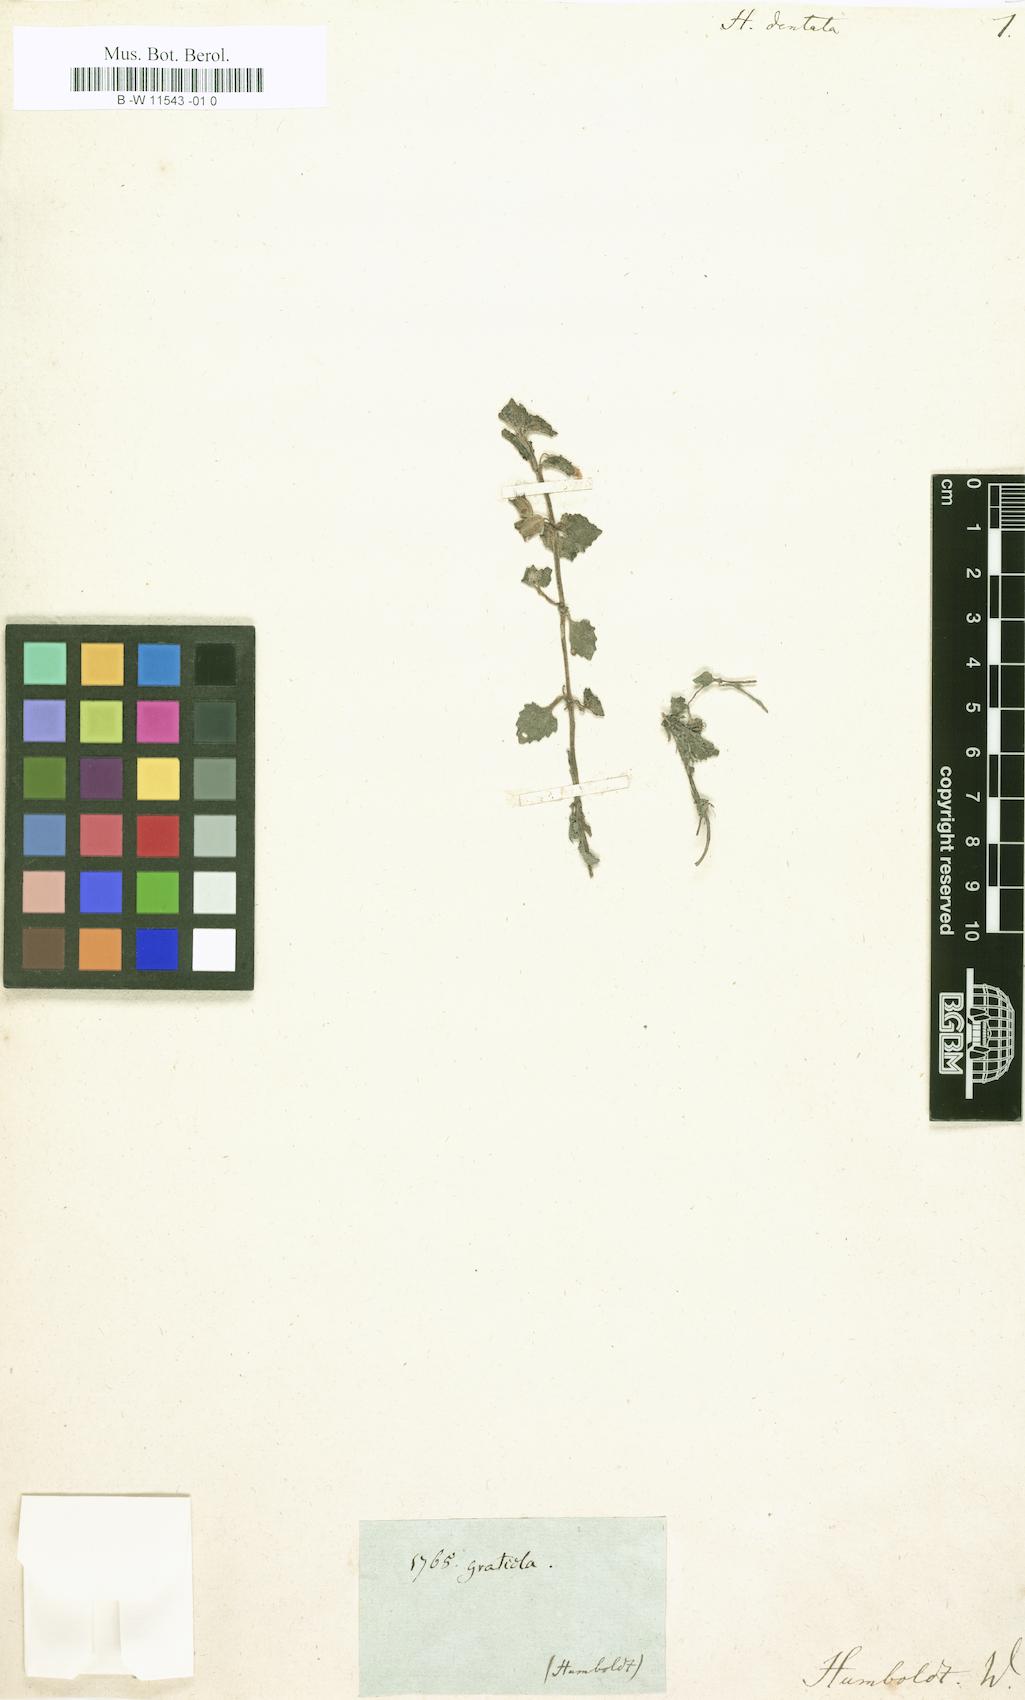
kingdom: Plantae
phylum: Tracheophyta
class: Magnoliopsida
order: Lamiales
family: Plantaginaceae
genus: Bacopa
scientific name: Bacopa Herpestis dentata
